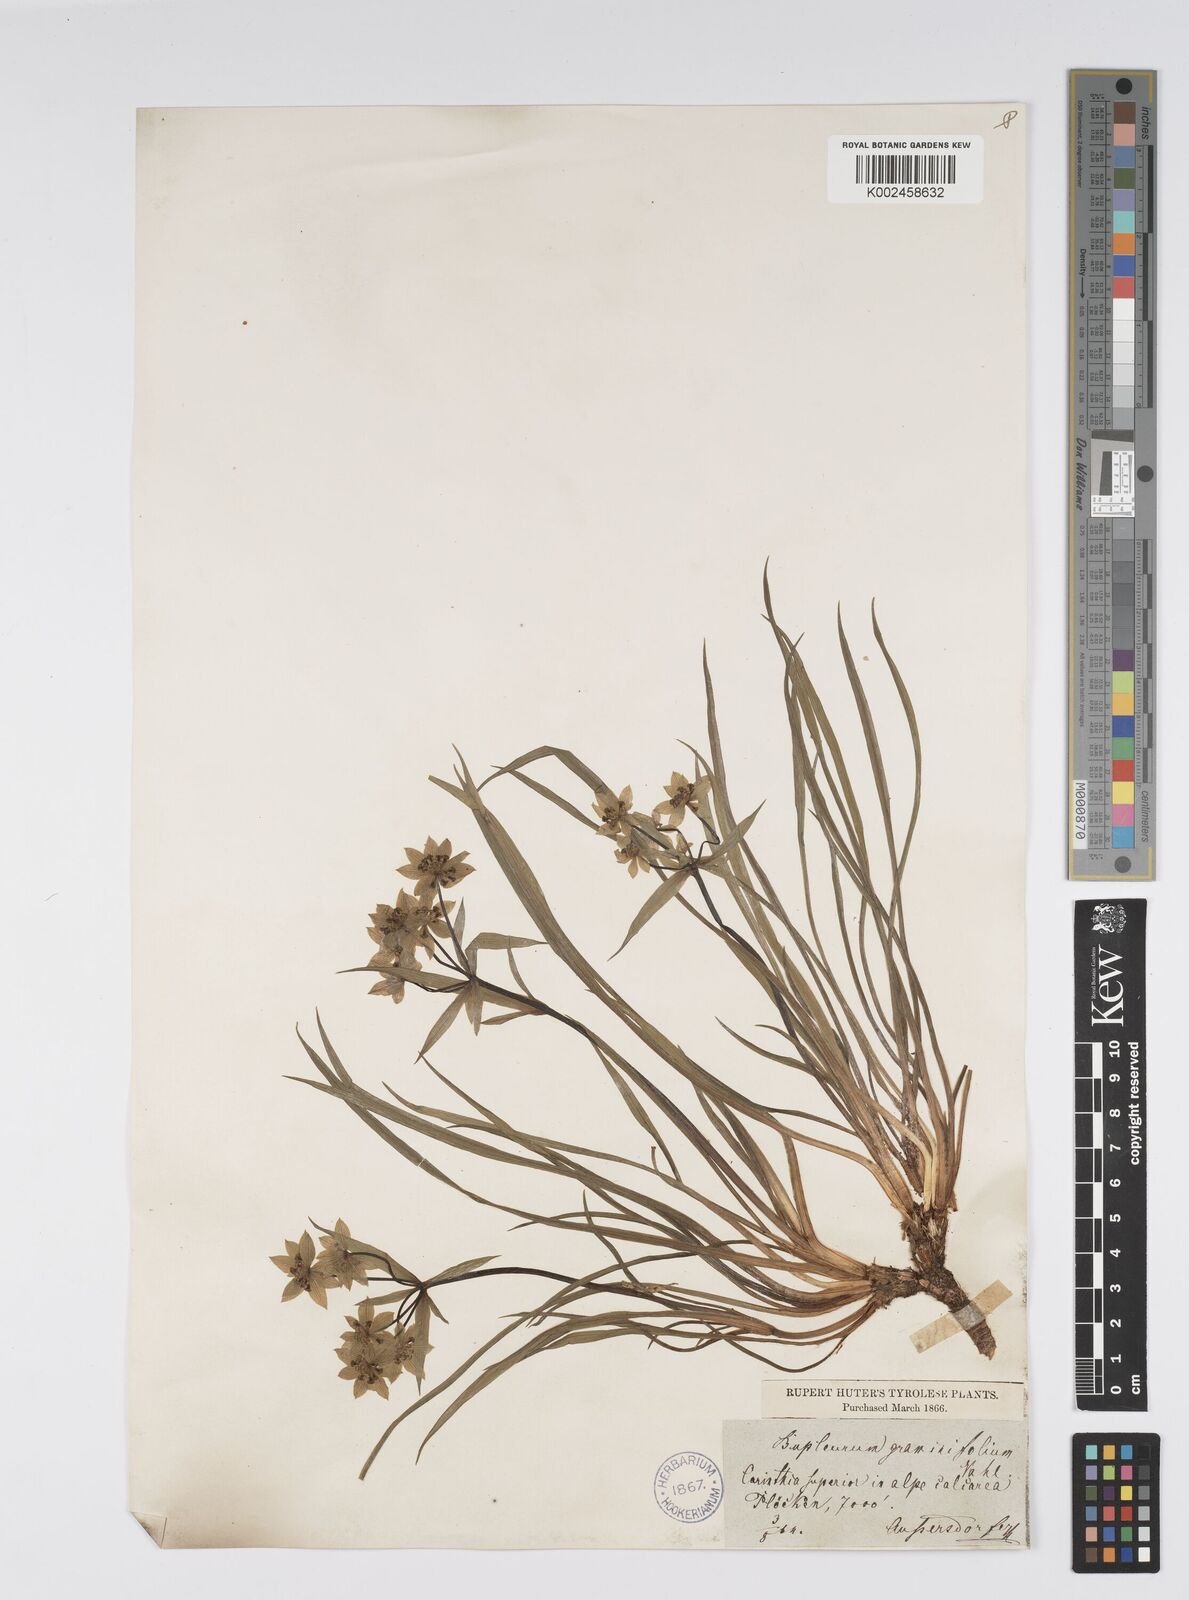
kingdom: Plantae
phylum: Tracheophyta
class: Magnoliopsida
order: Apiales
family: Apiaceae
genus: Bupleurum
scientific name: Bupleurum petraeum
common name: Rock hare's-ear
